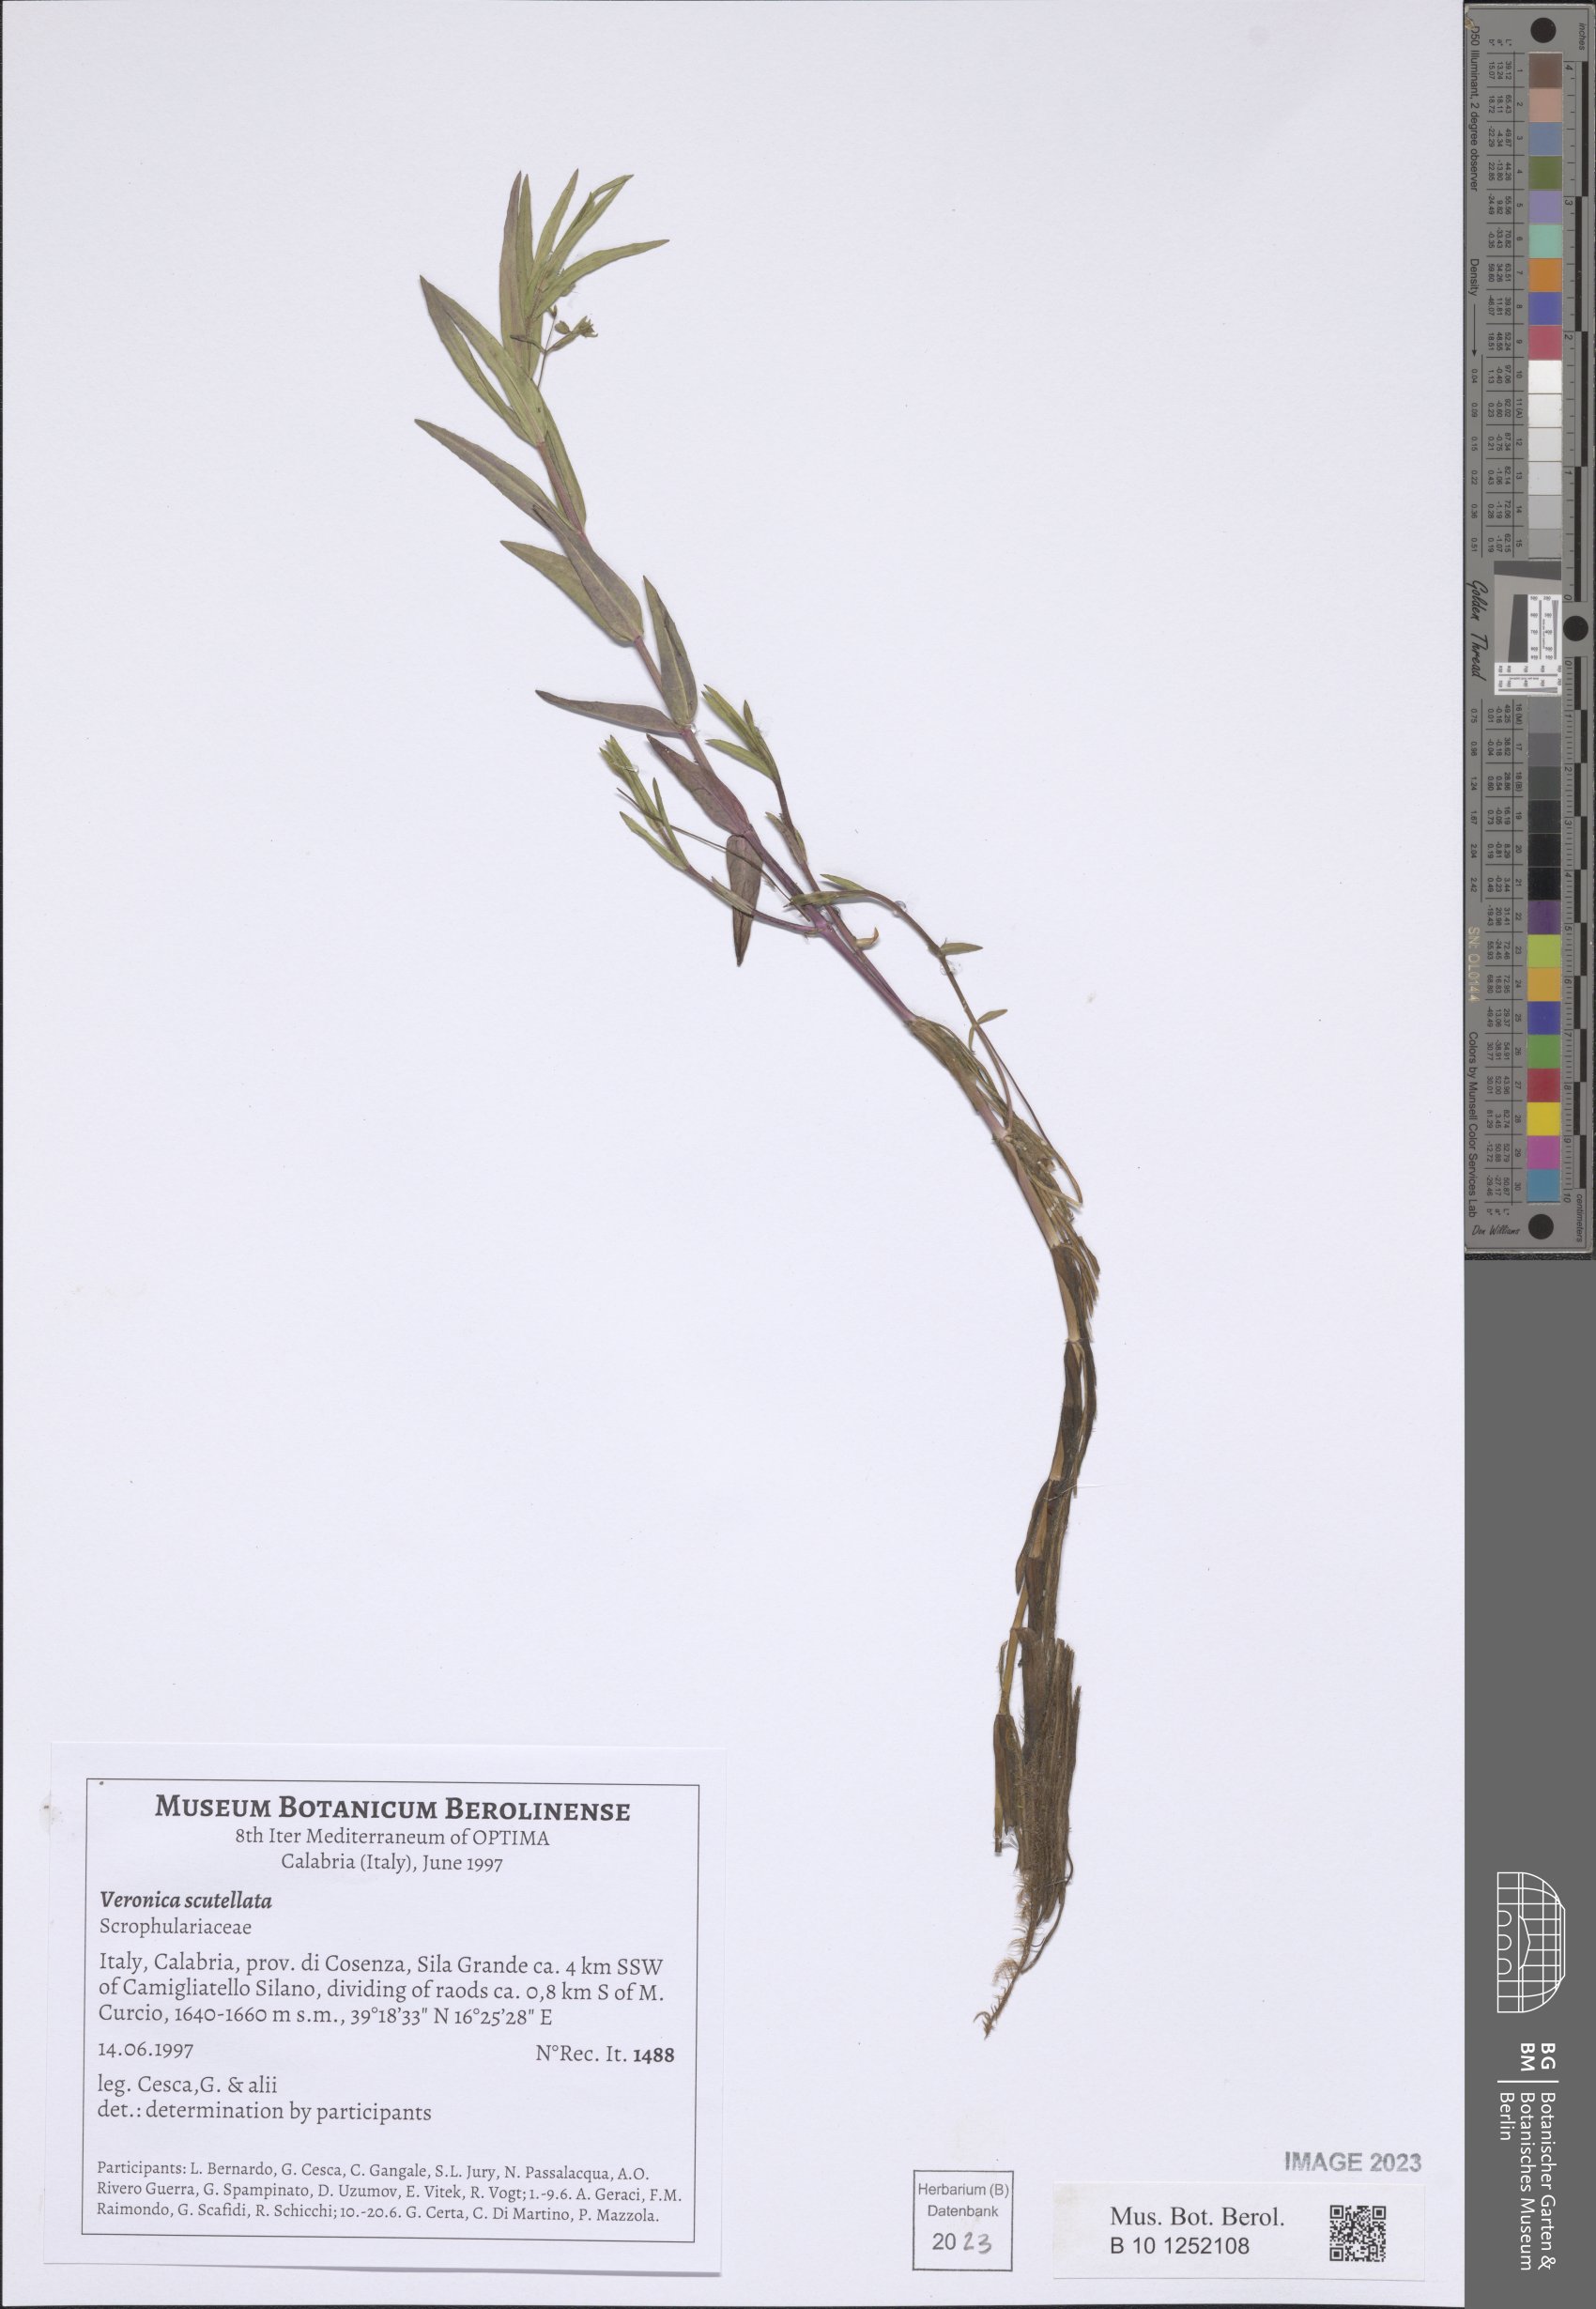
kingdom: Plantae
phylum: Tracheophyta
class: Magnoliopsida
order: Lamiales
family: Plantaginaceae
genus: Veronica
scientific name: Veronica scutellata
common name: Marsh speedwell
